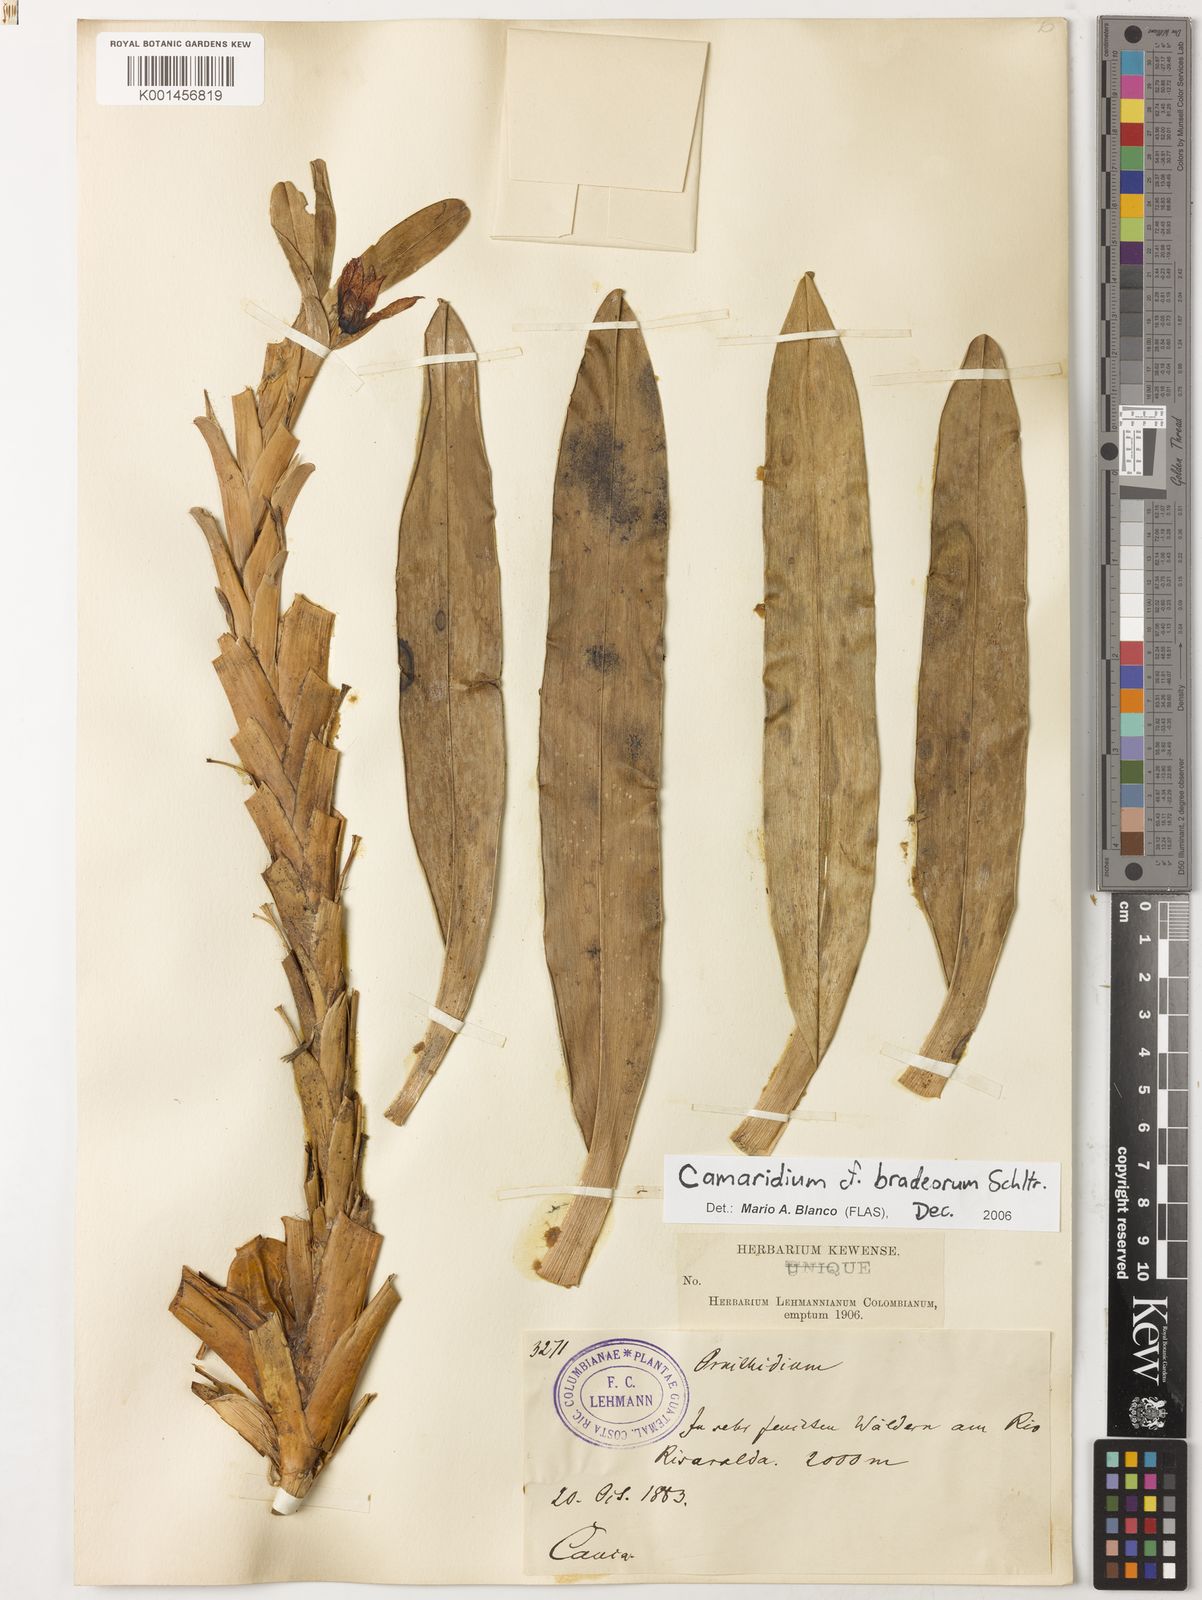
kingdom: Plantae
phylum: Tracheophyta
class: Liliopsida
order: Asparagales
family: Orchidaceae
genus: Maxillaria
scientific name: Maxillaria bradeorum
